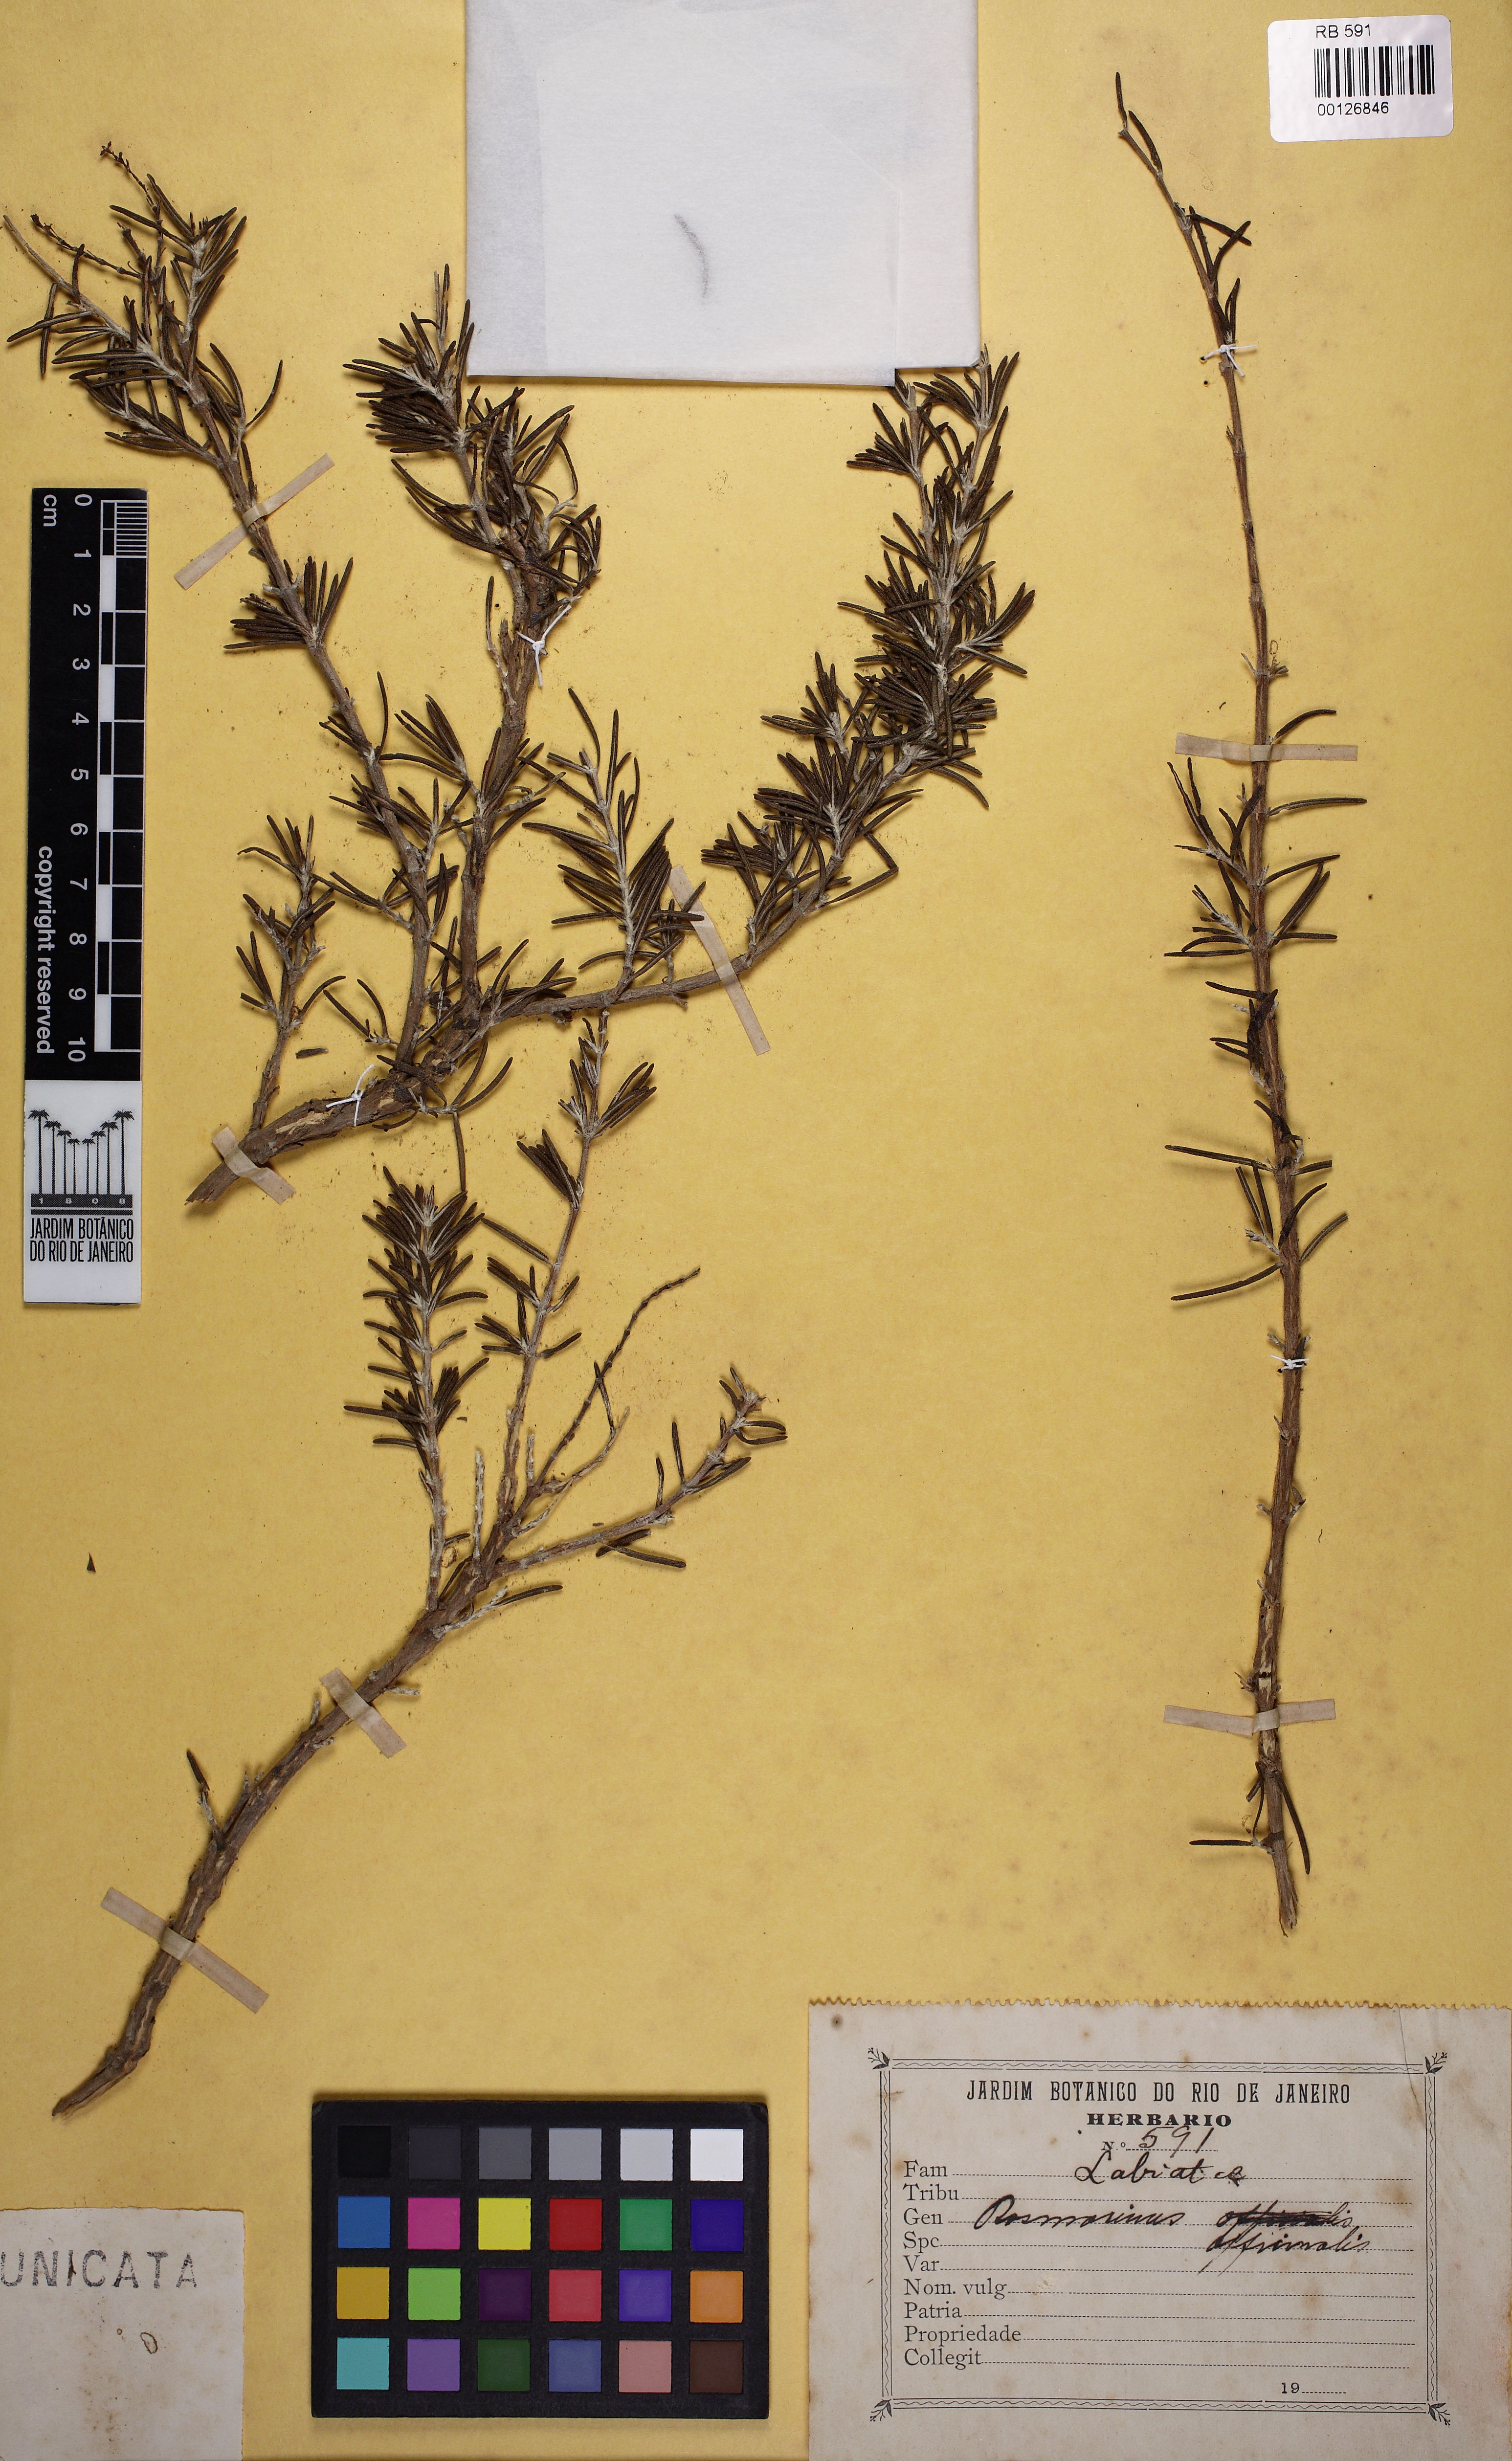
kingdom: Plantae
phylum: Tracheophyta
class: Magnoliopsida
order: Lamiales
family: Lamiaceae
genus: Salvia
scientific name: Salvia rosmarinus
